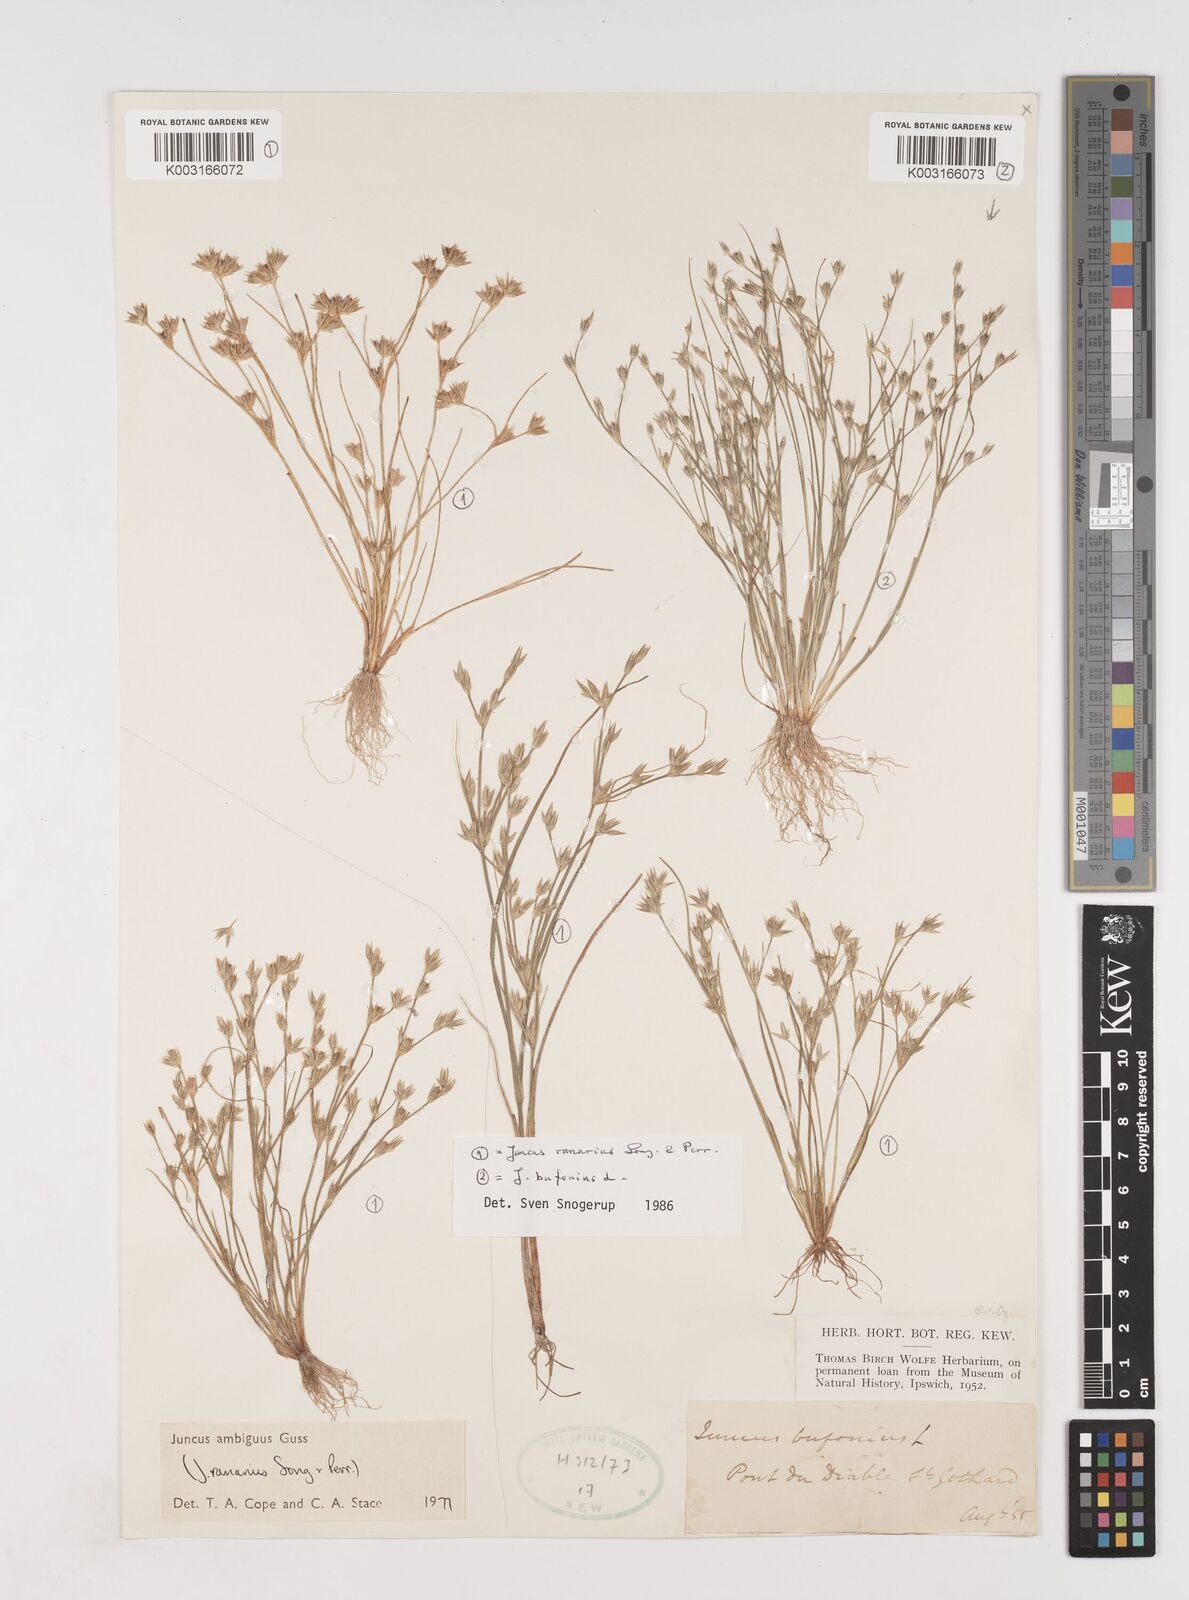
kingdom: Plantae
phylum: Tracheophyta
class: Liliopsida
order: Poales
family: Juncaceae
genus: Juncus
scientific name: Juncus hybridus
